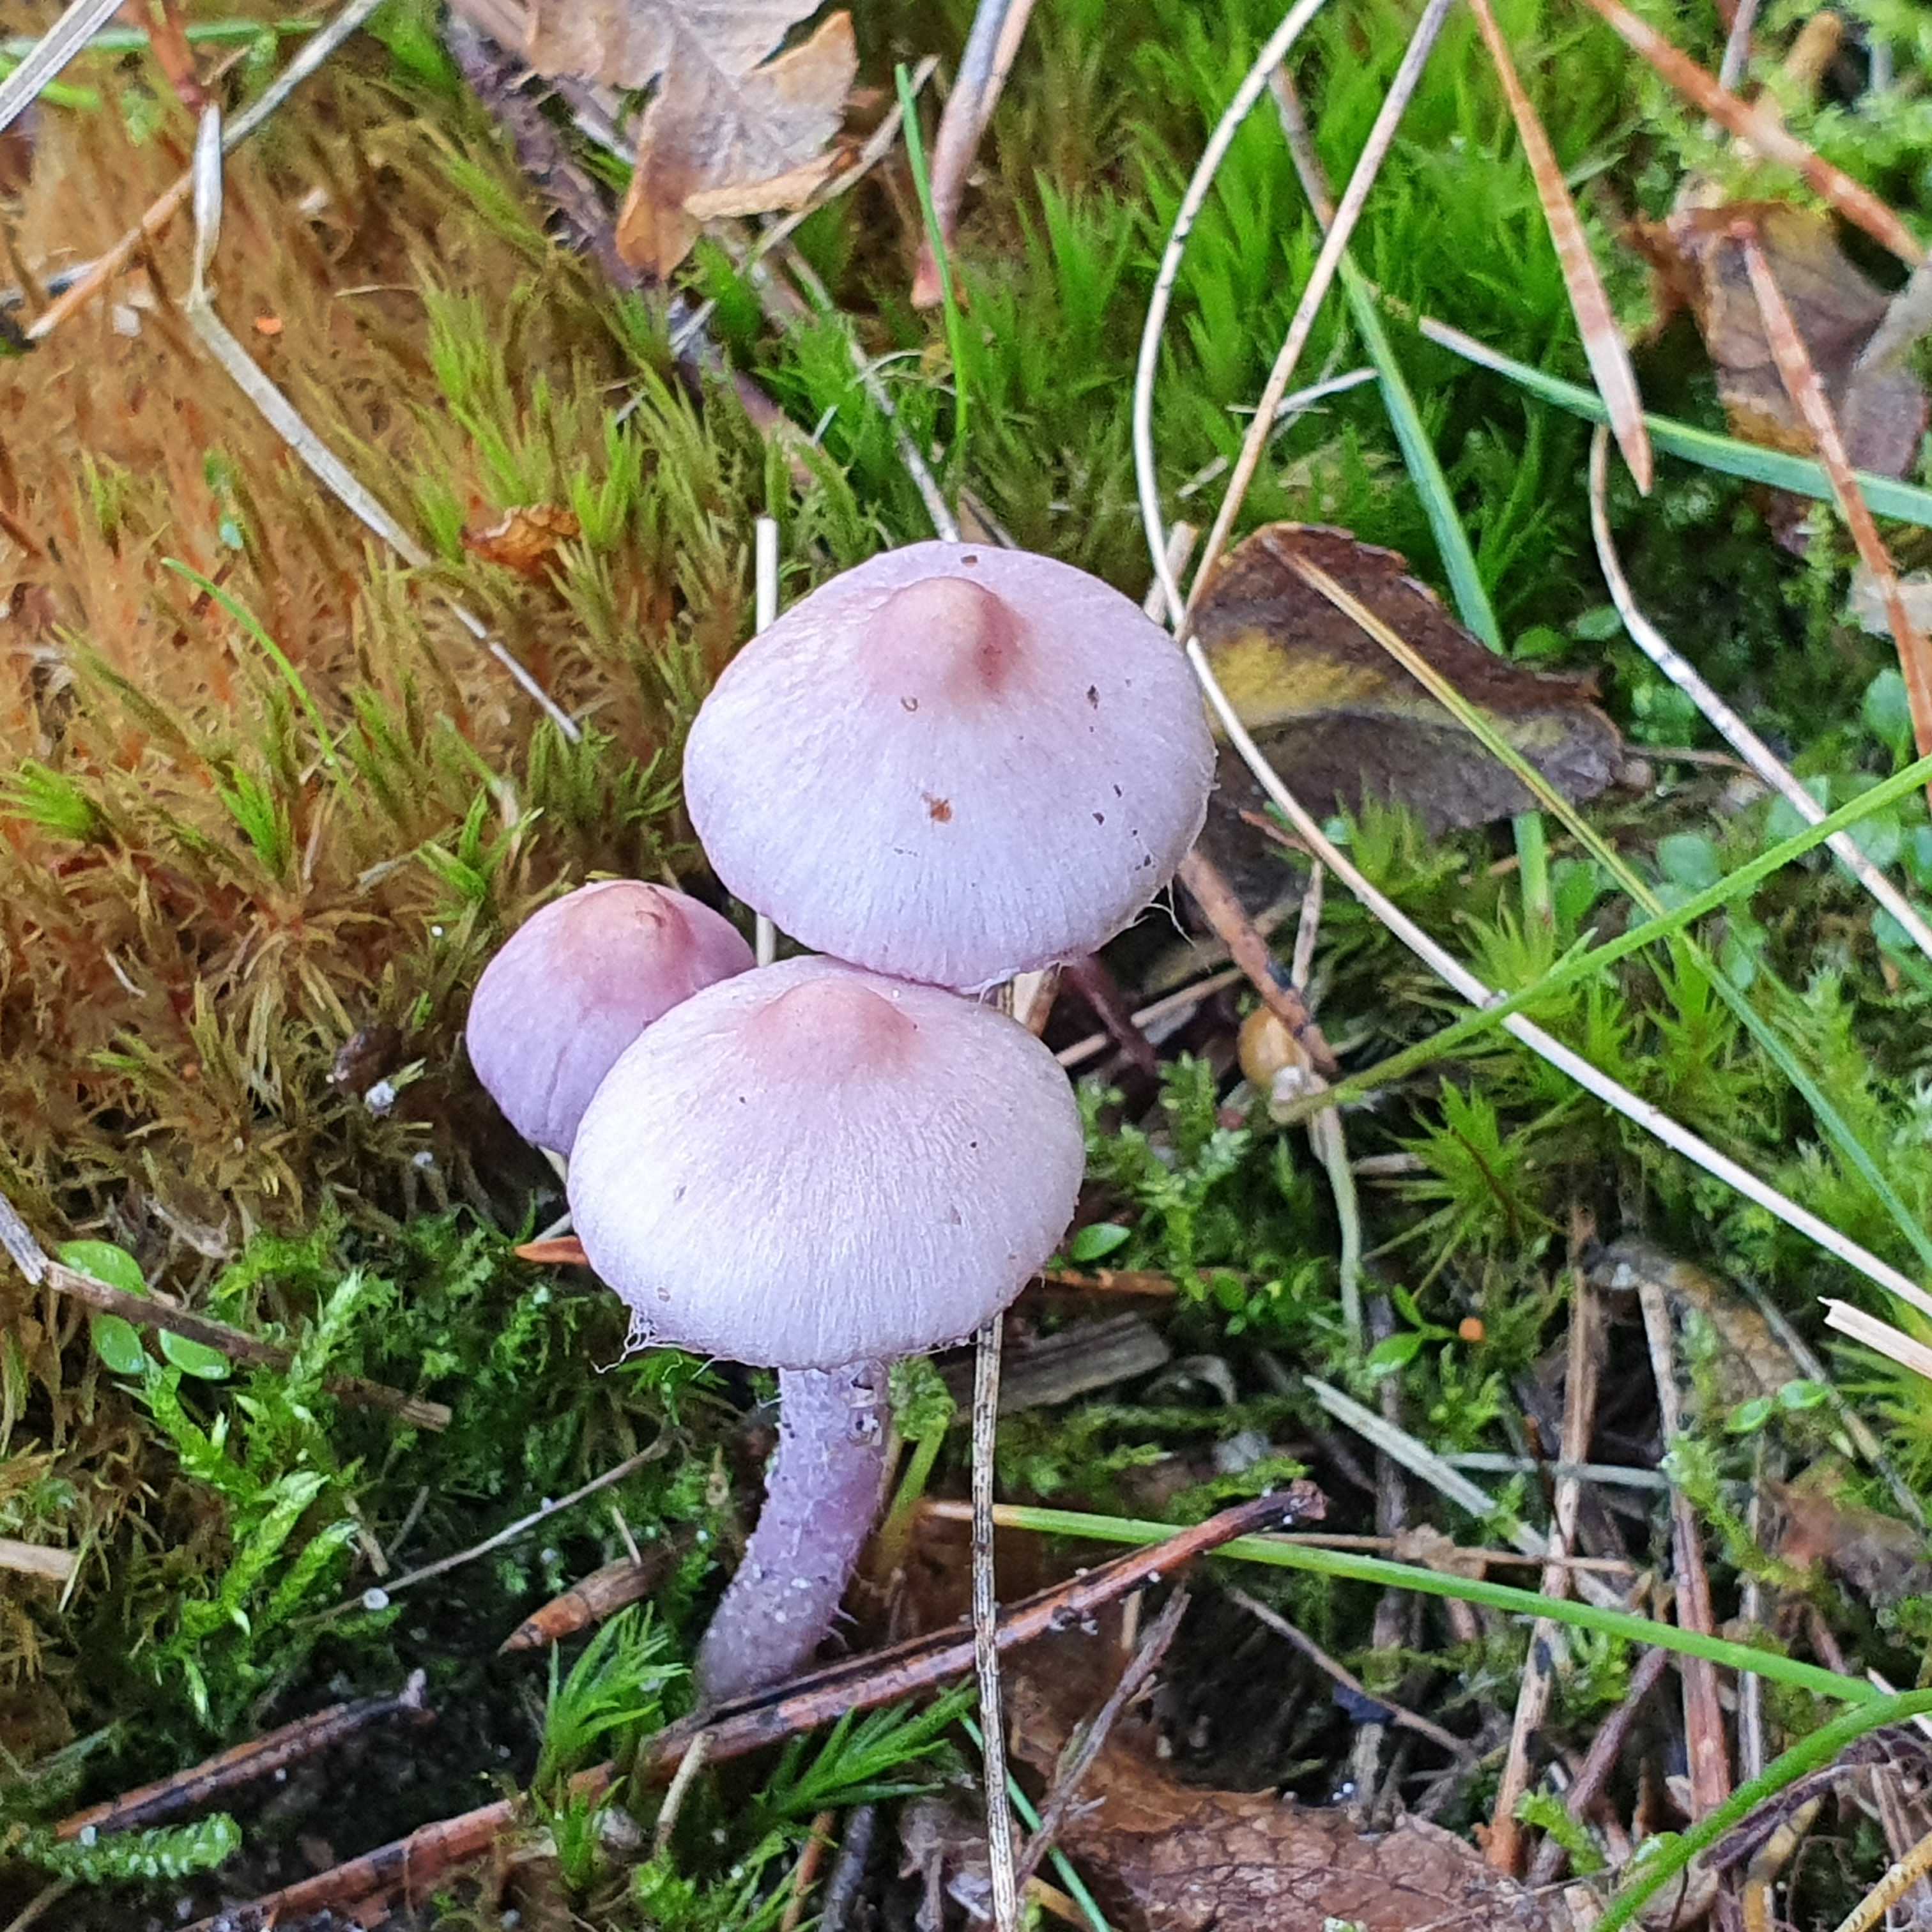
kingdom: Fungi
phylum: Basidiomycota
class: Agaricomycetes
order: Agaricales
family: Inocybaceae
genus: Inocybe
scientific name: Inocybe geophylla
